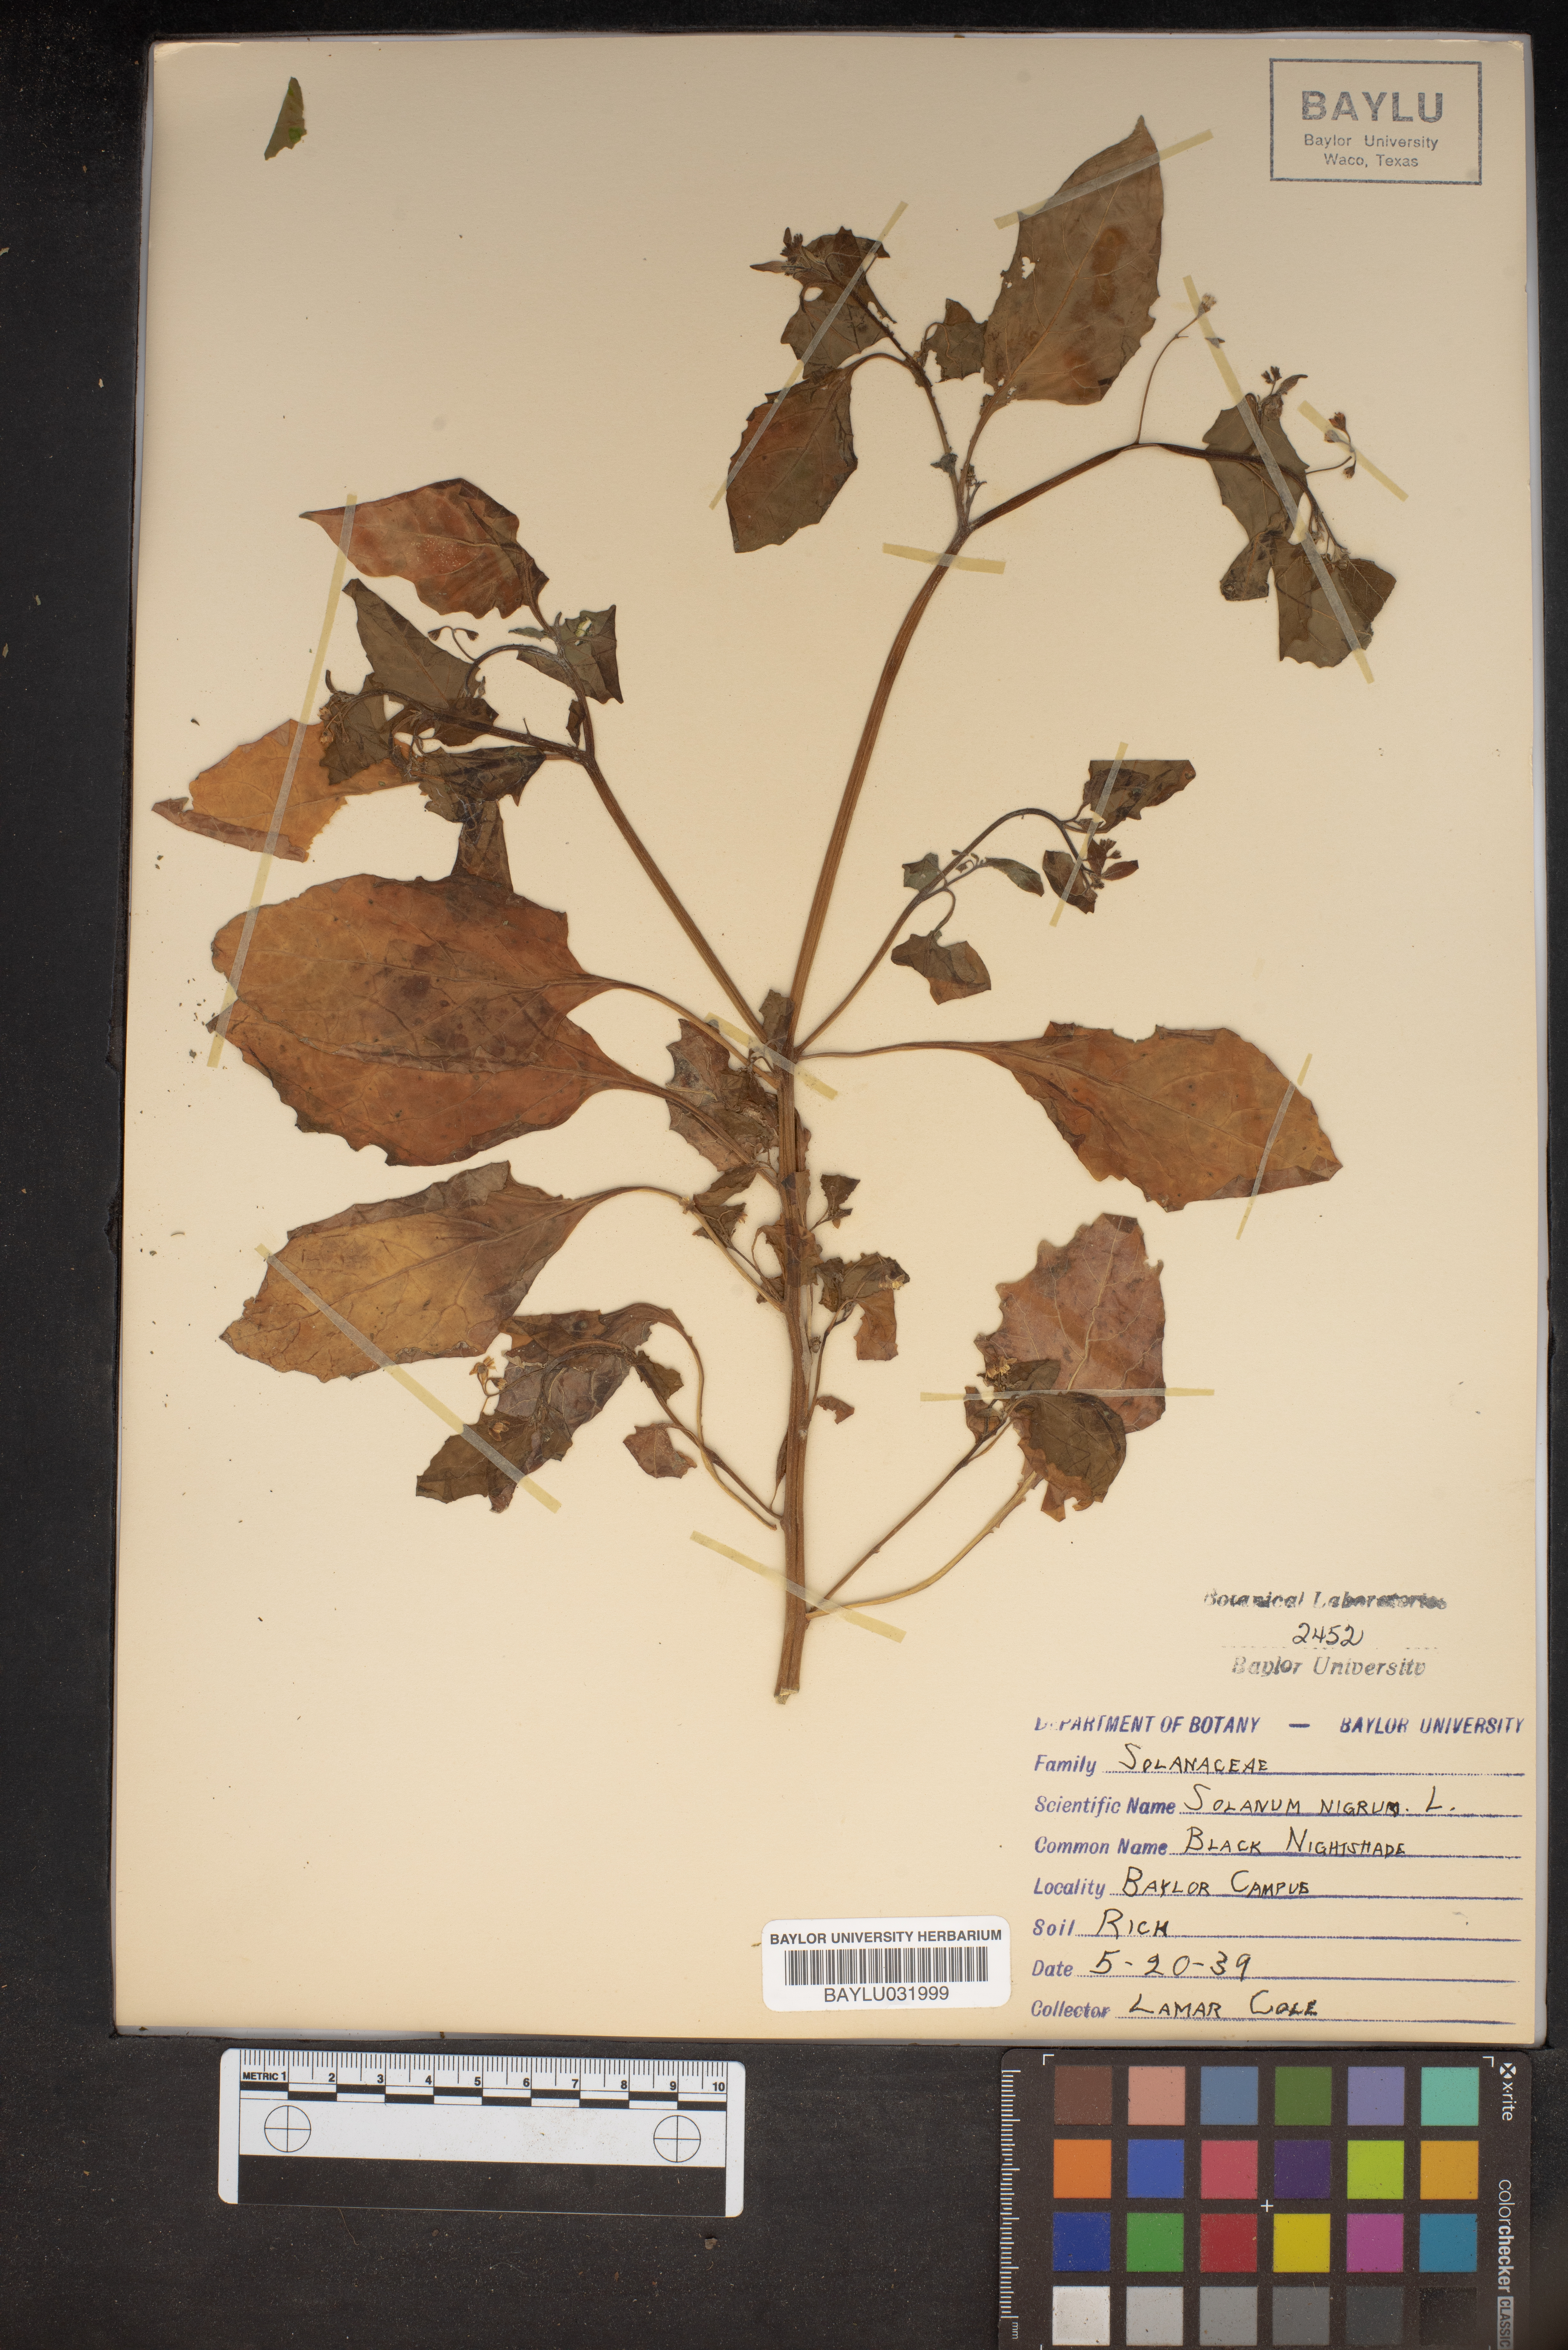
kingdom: Plantae
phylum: Tracheophyta
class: Magnoliopsida
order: Solanales
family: Solanaceae
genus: Solanum
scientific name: Solanum nigrum
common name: Black nightshade
